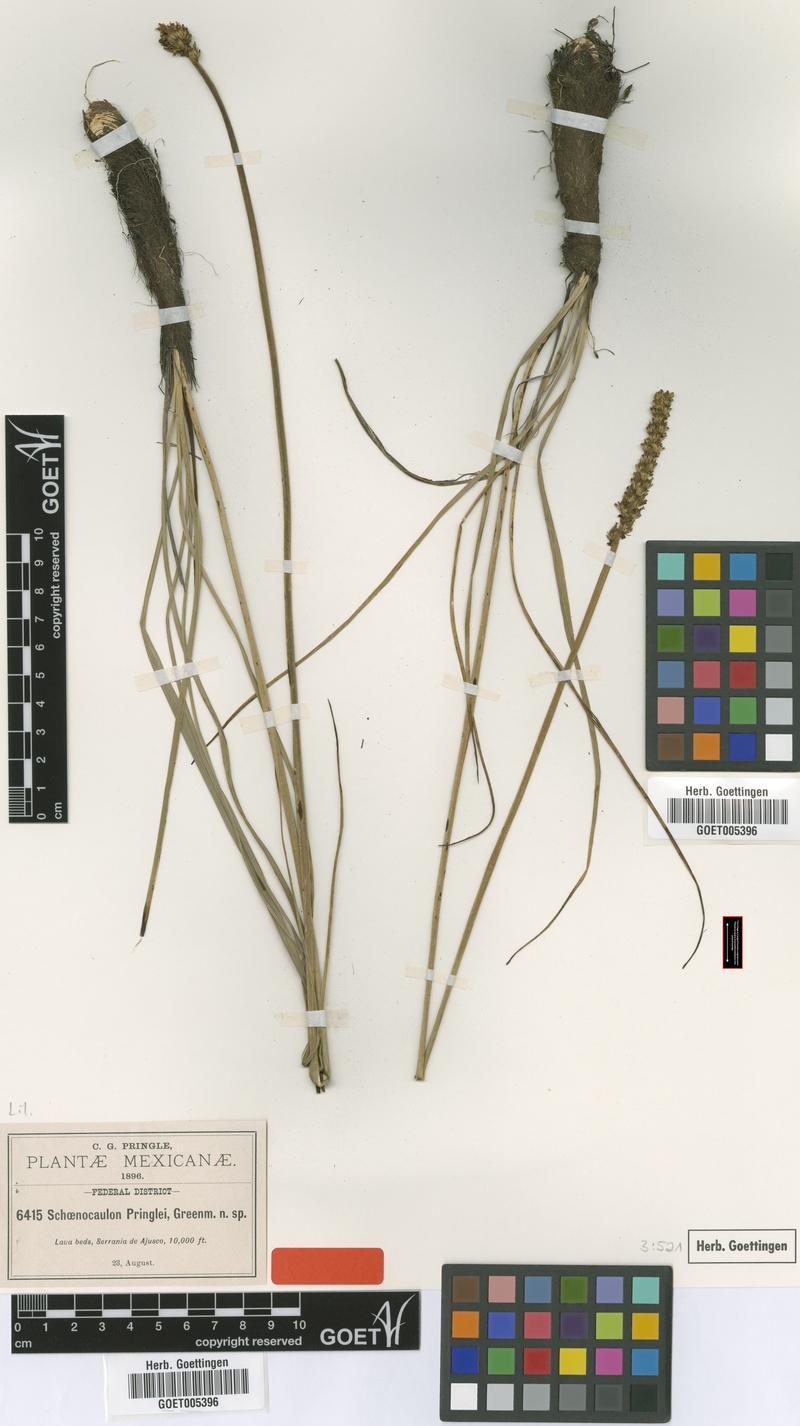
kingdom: Plantae
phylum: Tracheophyta
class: Liliopsida
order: Liliales
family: Melanthiaceae
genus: Schoenocaulon
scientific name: Schoenocaulon pringlei
